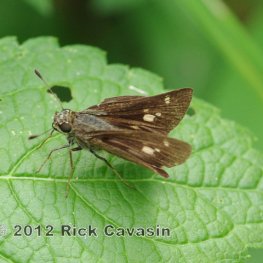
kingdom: Animalia
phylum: Arthropoda
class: Insecta
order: Lepidoptera
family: Hesperiidae
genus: Vernia
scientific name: Vernia verna
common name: Little Glassywing
